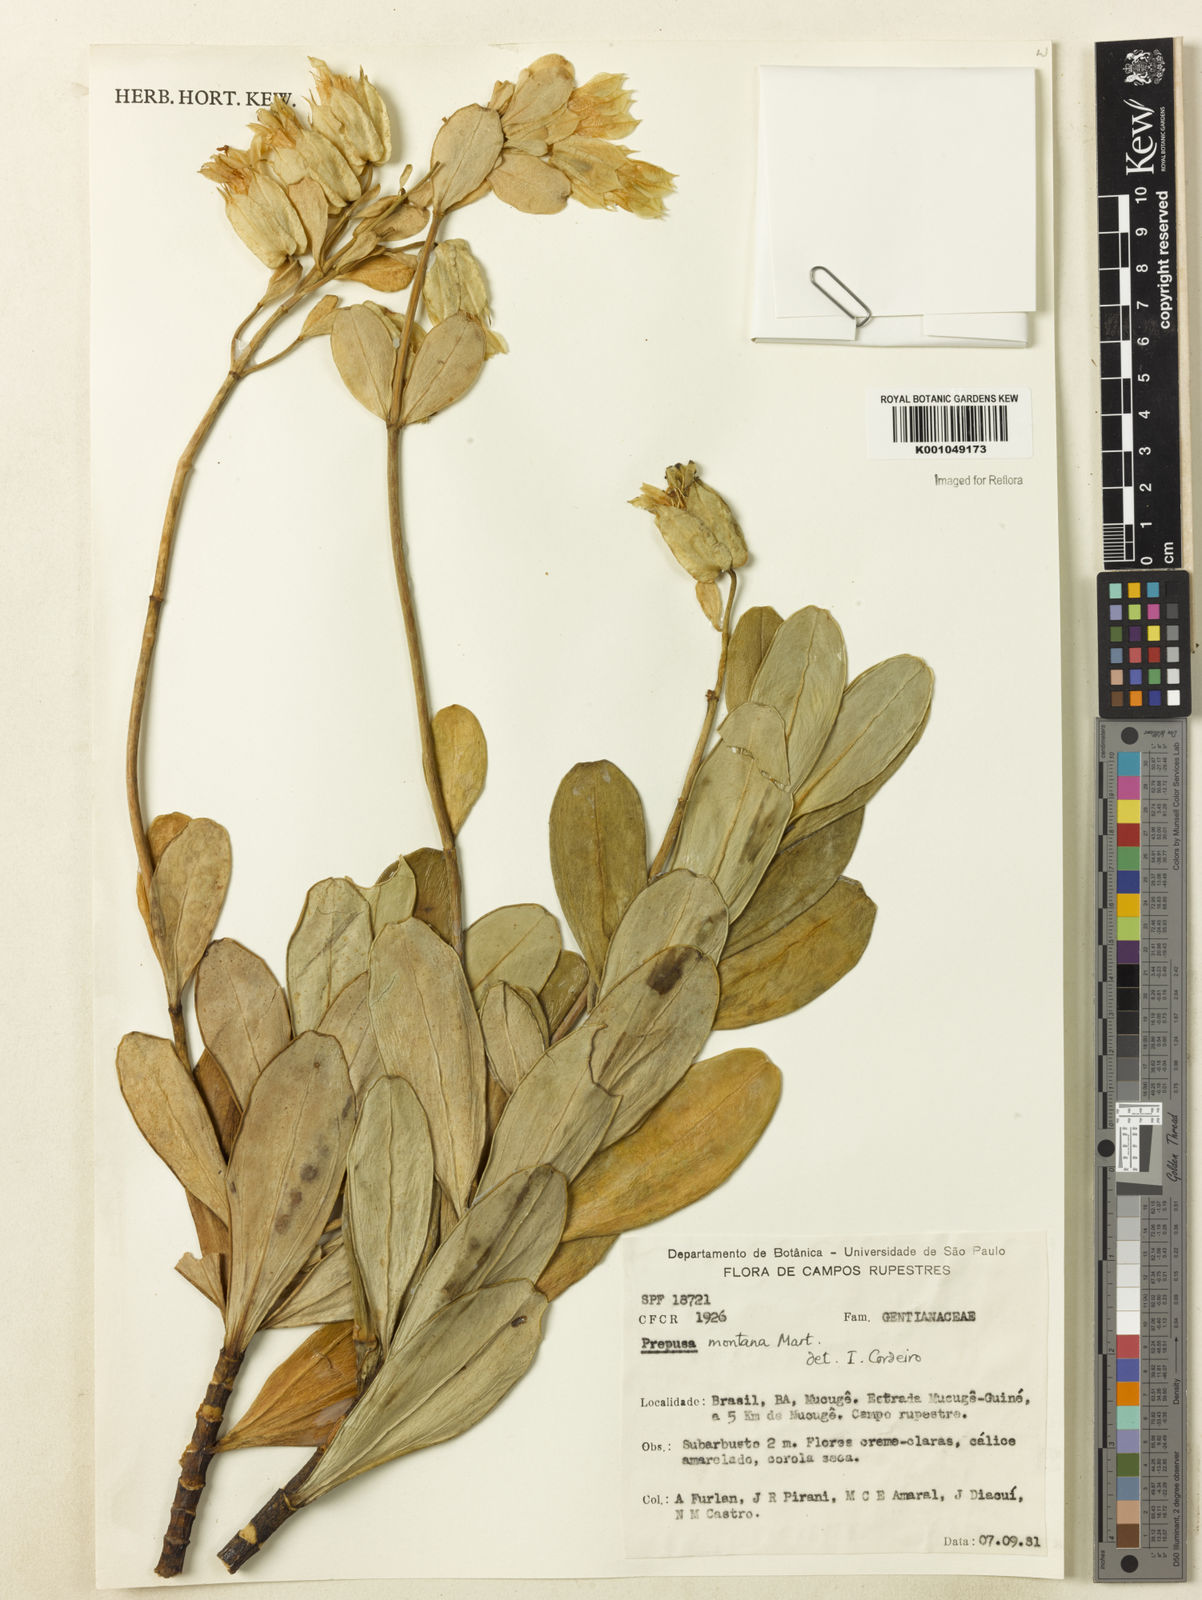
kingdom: Plantae
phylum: Tracheophyta
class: Magnoliopsida
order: Gentianales
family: Gentianaceae
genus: Prepusa
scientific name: Prepusa montana
